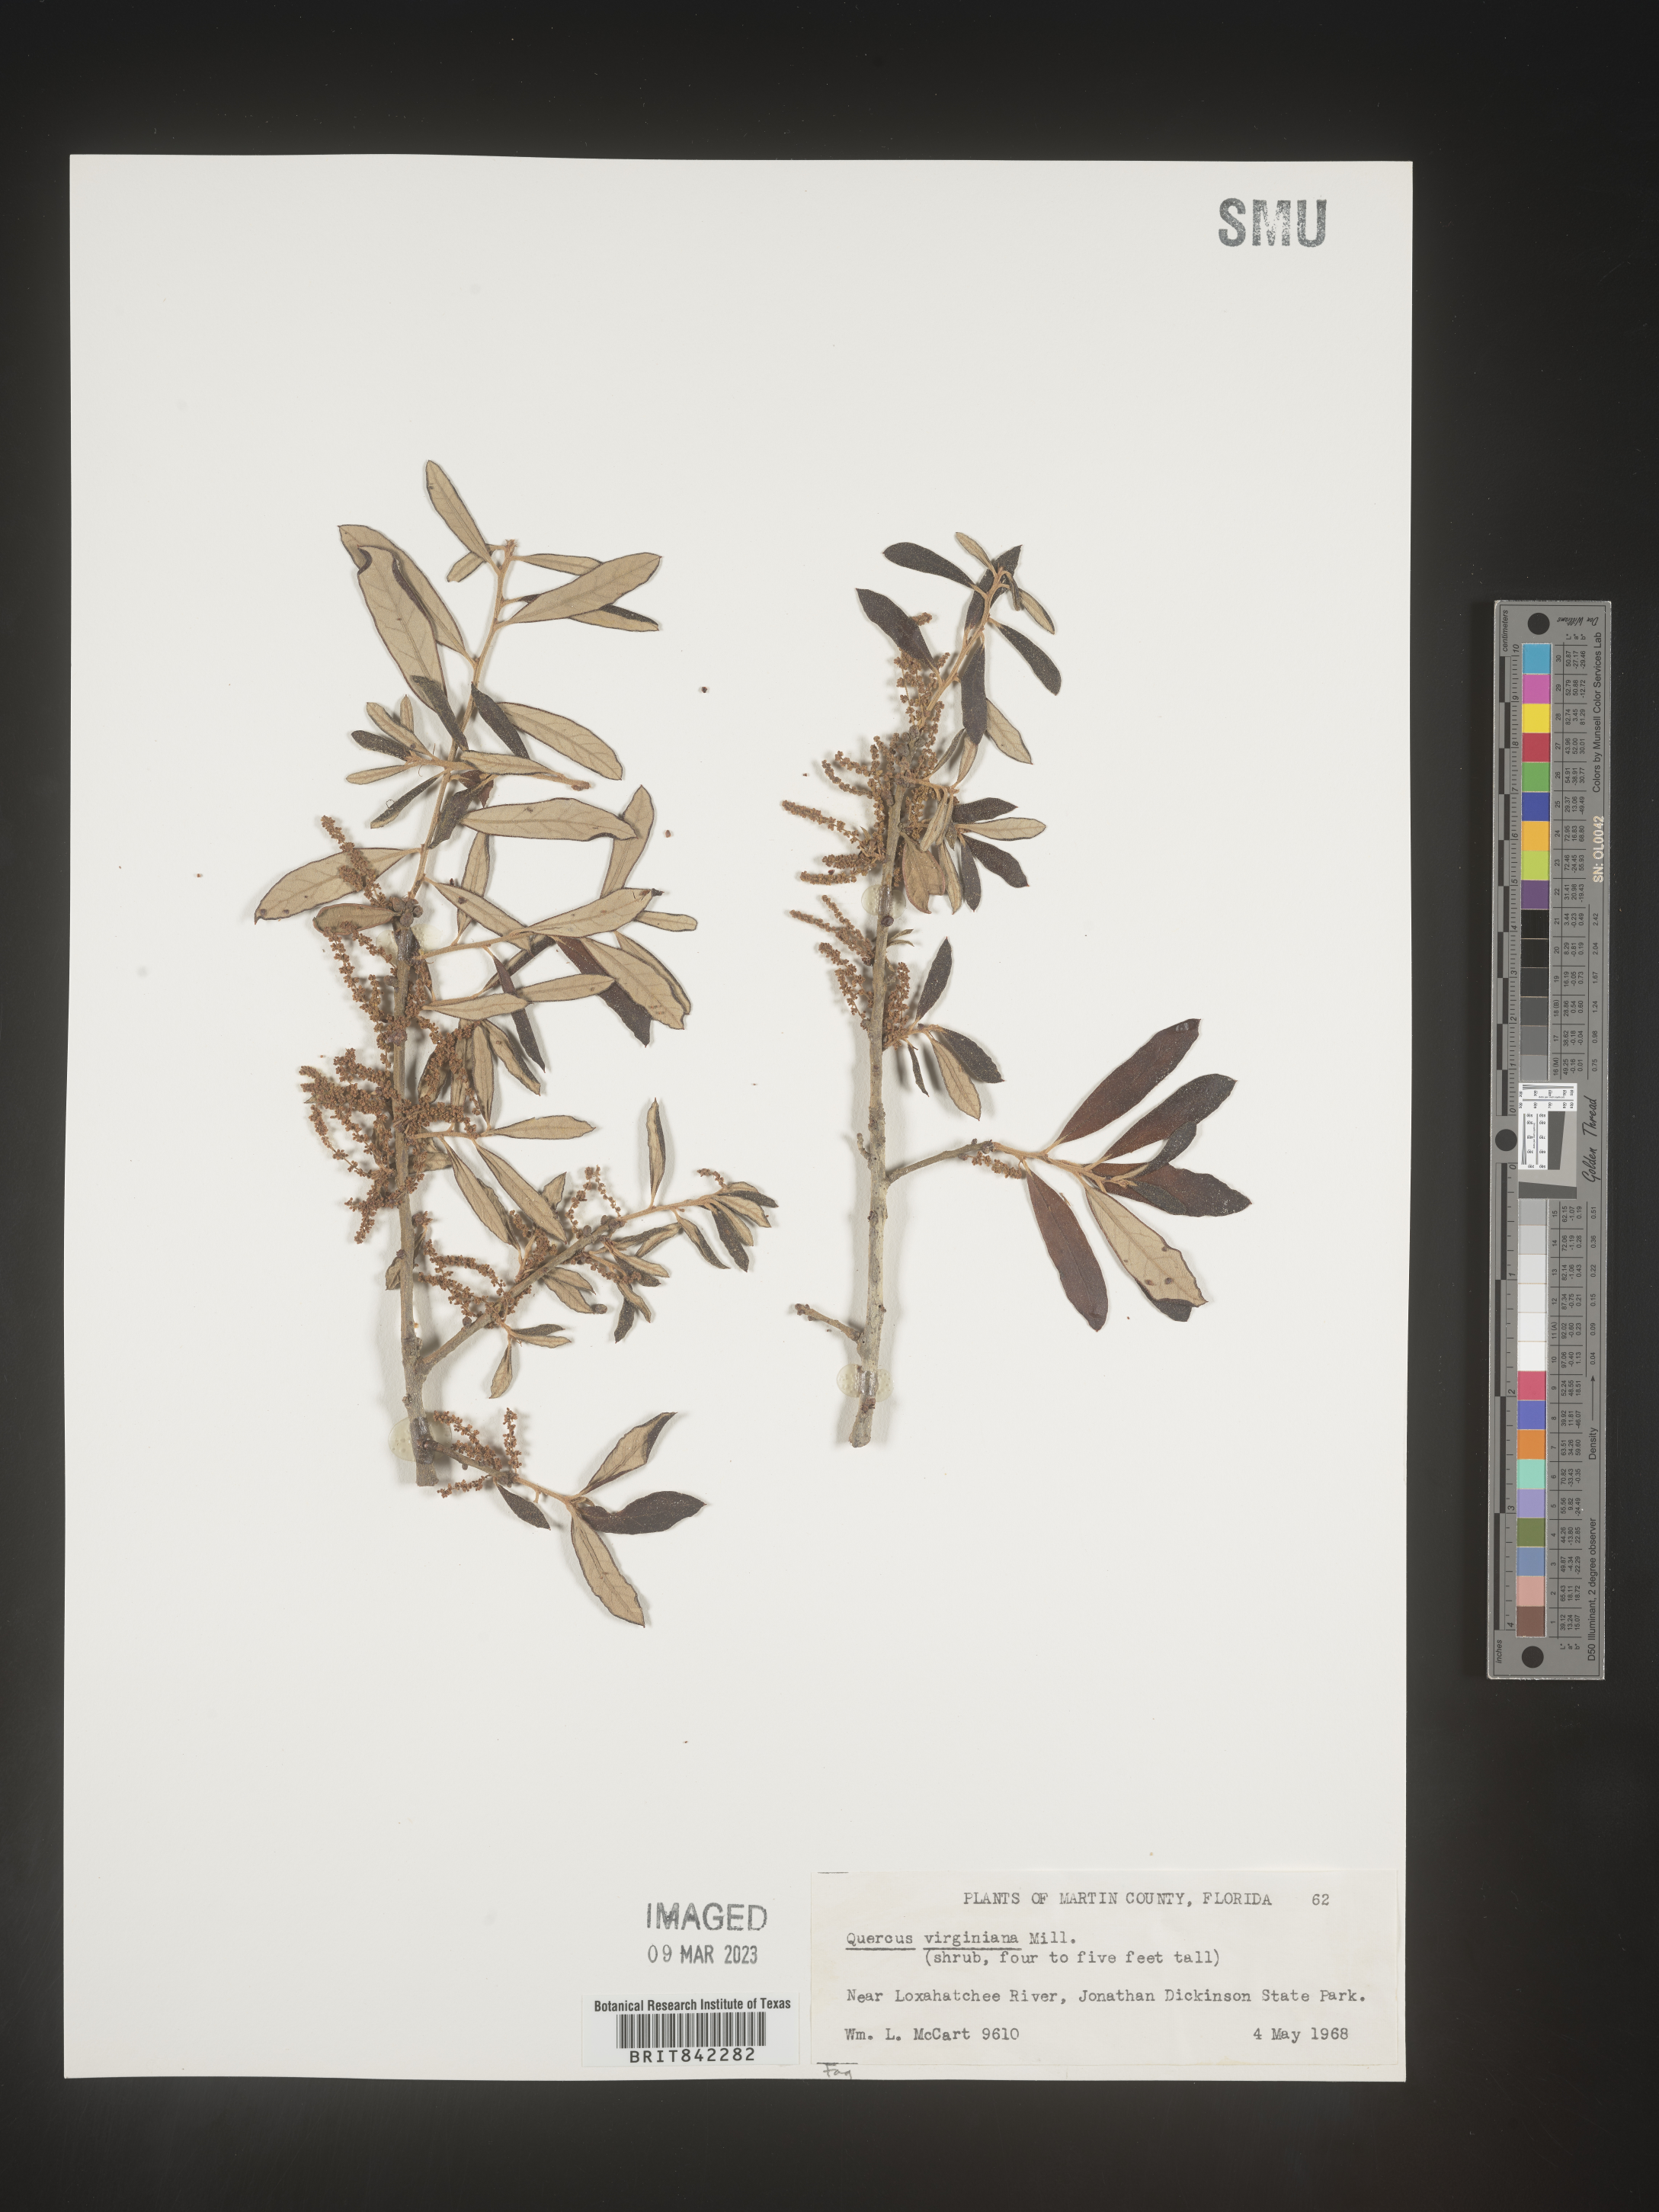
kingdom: Plantae
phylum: Tracheophyta
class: Magnoliopsida
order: Fagales
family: Fagaceae
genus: Quercus
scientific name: Quercus virginiana
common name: Southern live oak
